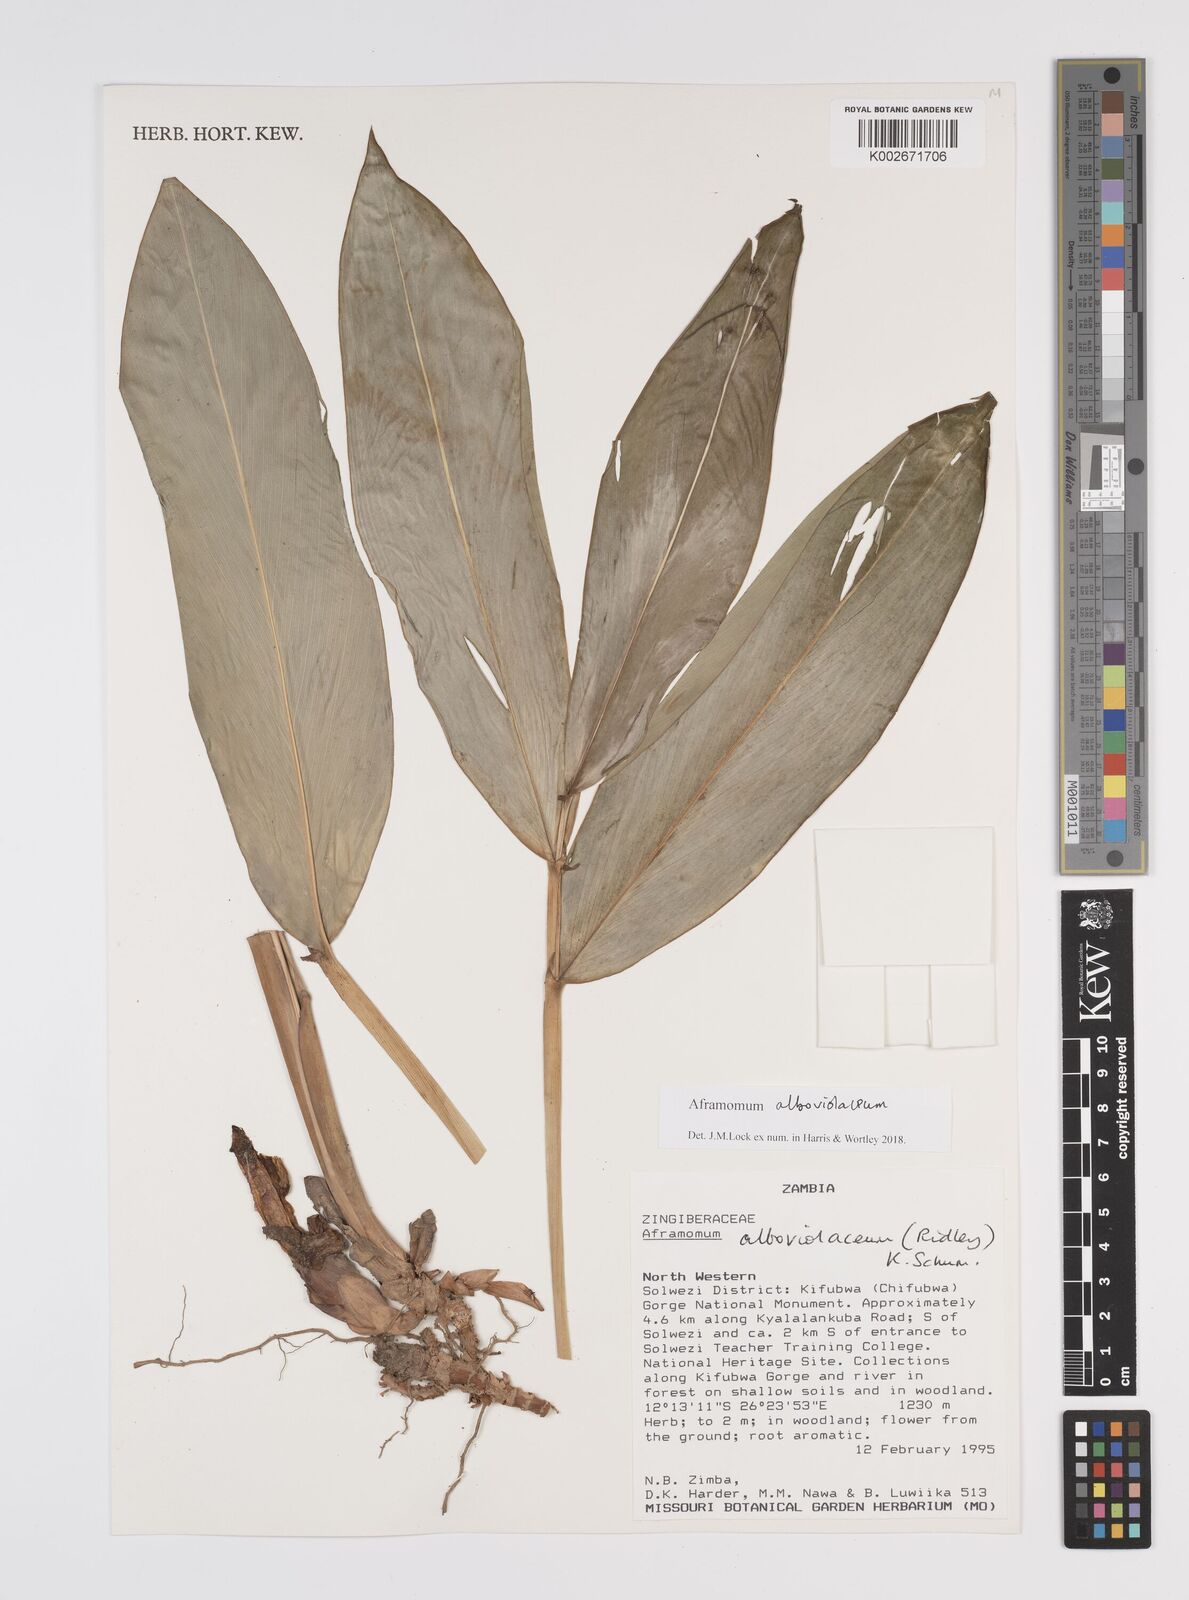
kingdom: Plantae
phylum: Tracheophyta
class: Liliopsida
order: Zingiberales
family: Zingiberaceae
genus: Aframomum
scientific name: Aframomum alboviolaceum
